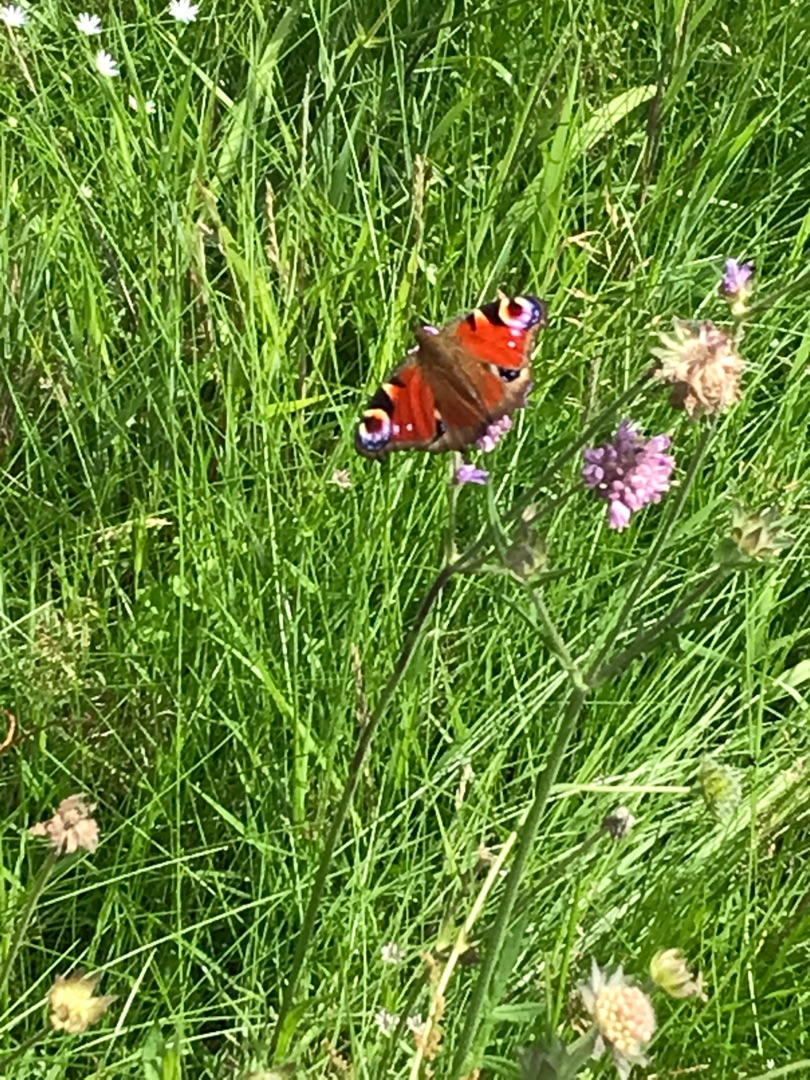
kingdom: Animalia
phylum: Arthropoda
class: Insecta
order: Lepidoptera
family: Nymphalidae
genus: Aglais
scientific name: Aglais io
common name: Dagpåfugleøje
